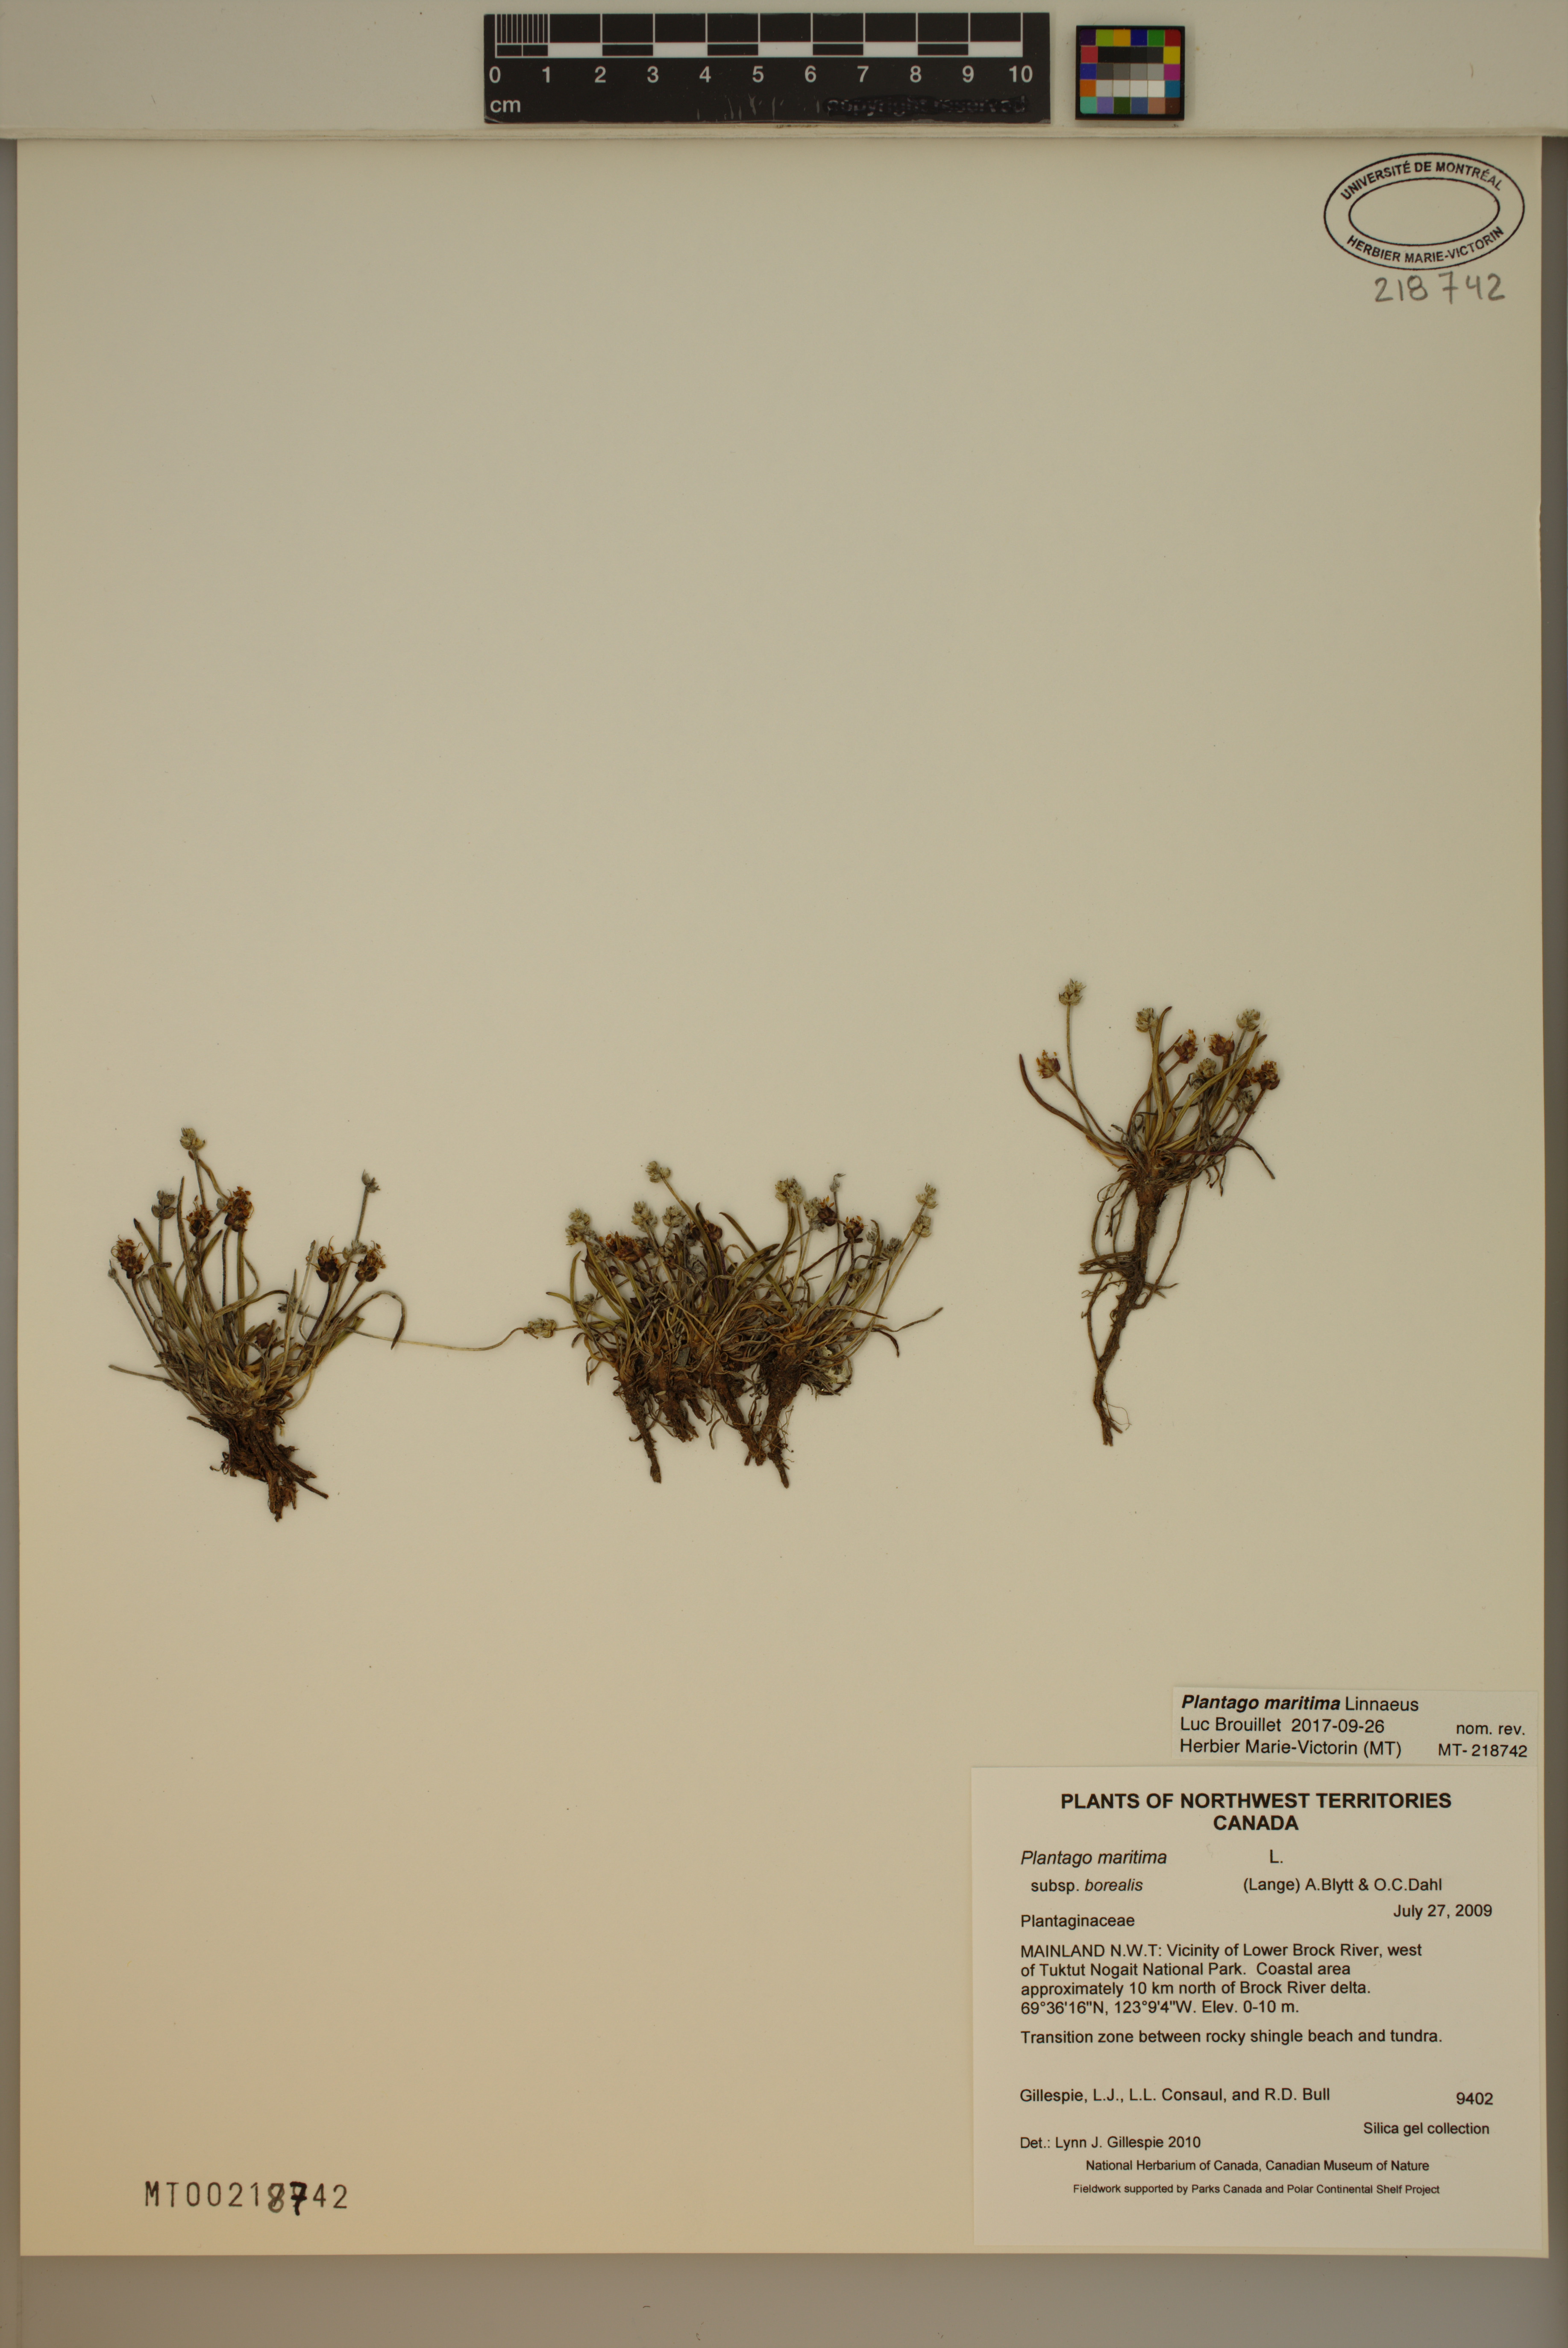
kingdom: Plantae
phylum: Tracheophyta
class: Magnoliopsida
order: Lamiales
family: Plantaginaceae
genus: Plantago
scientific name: Plantago maritima
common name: Sea plantain
